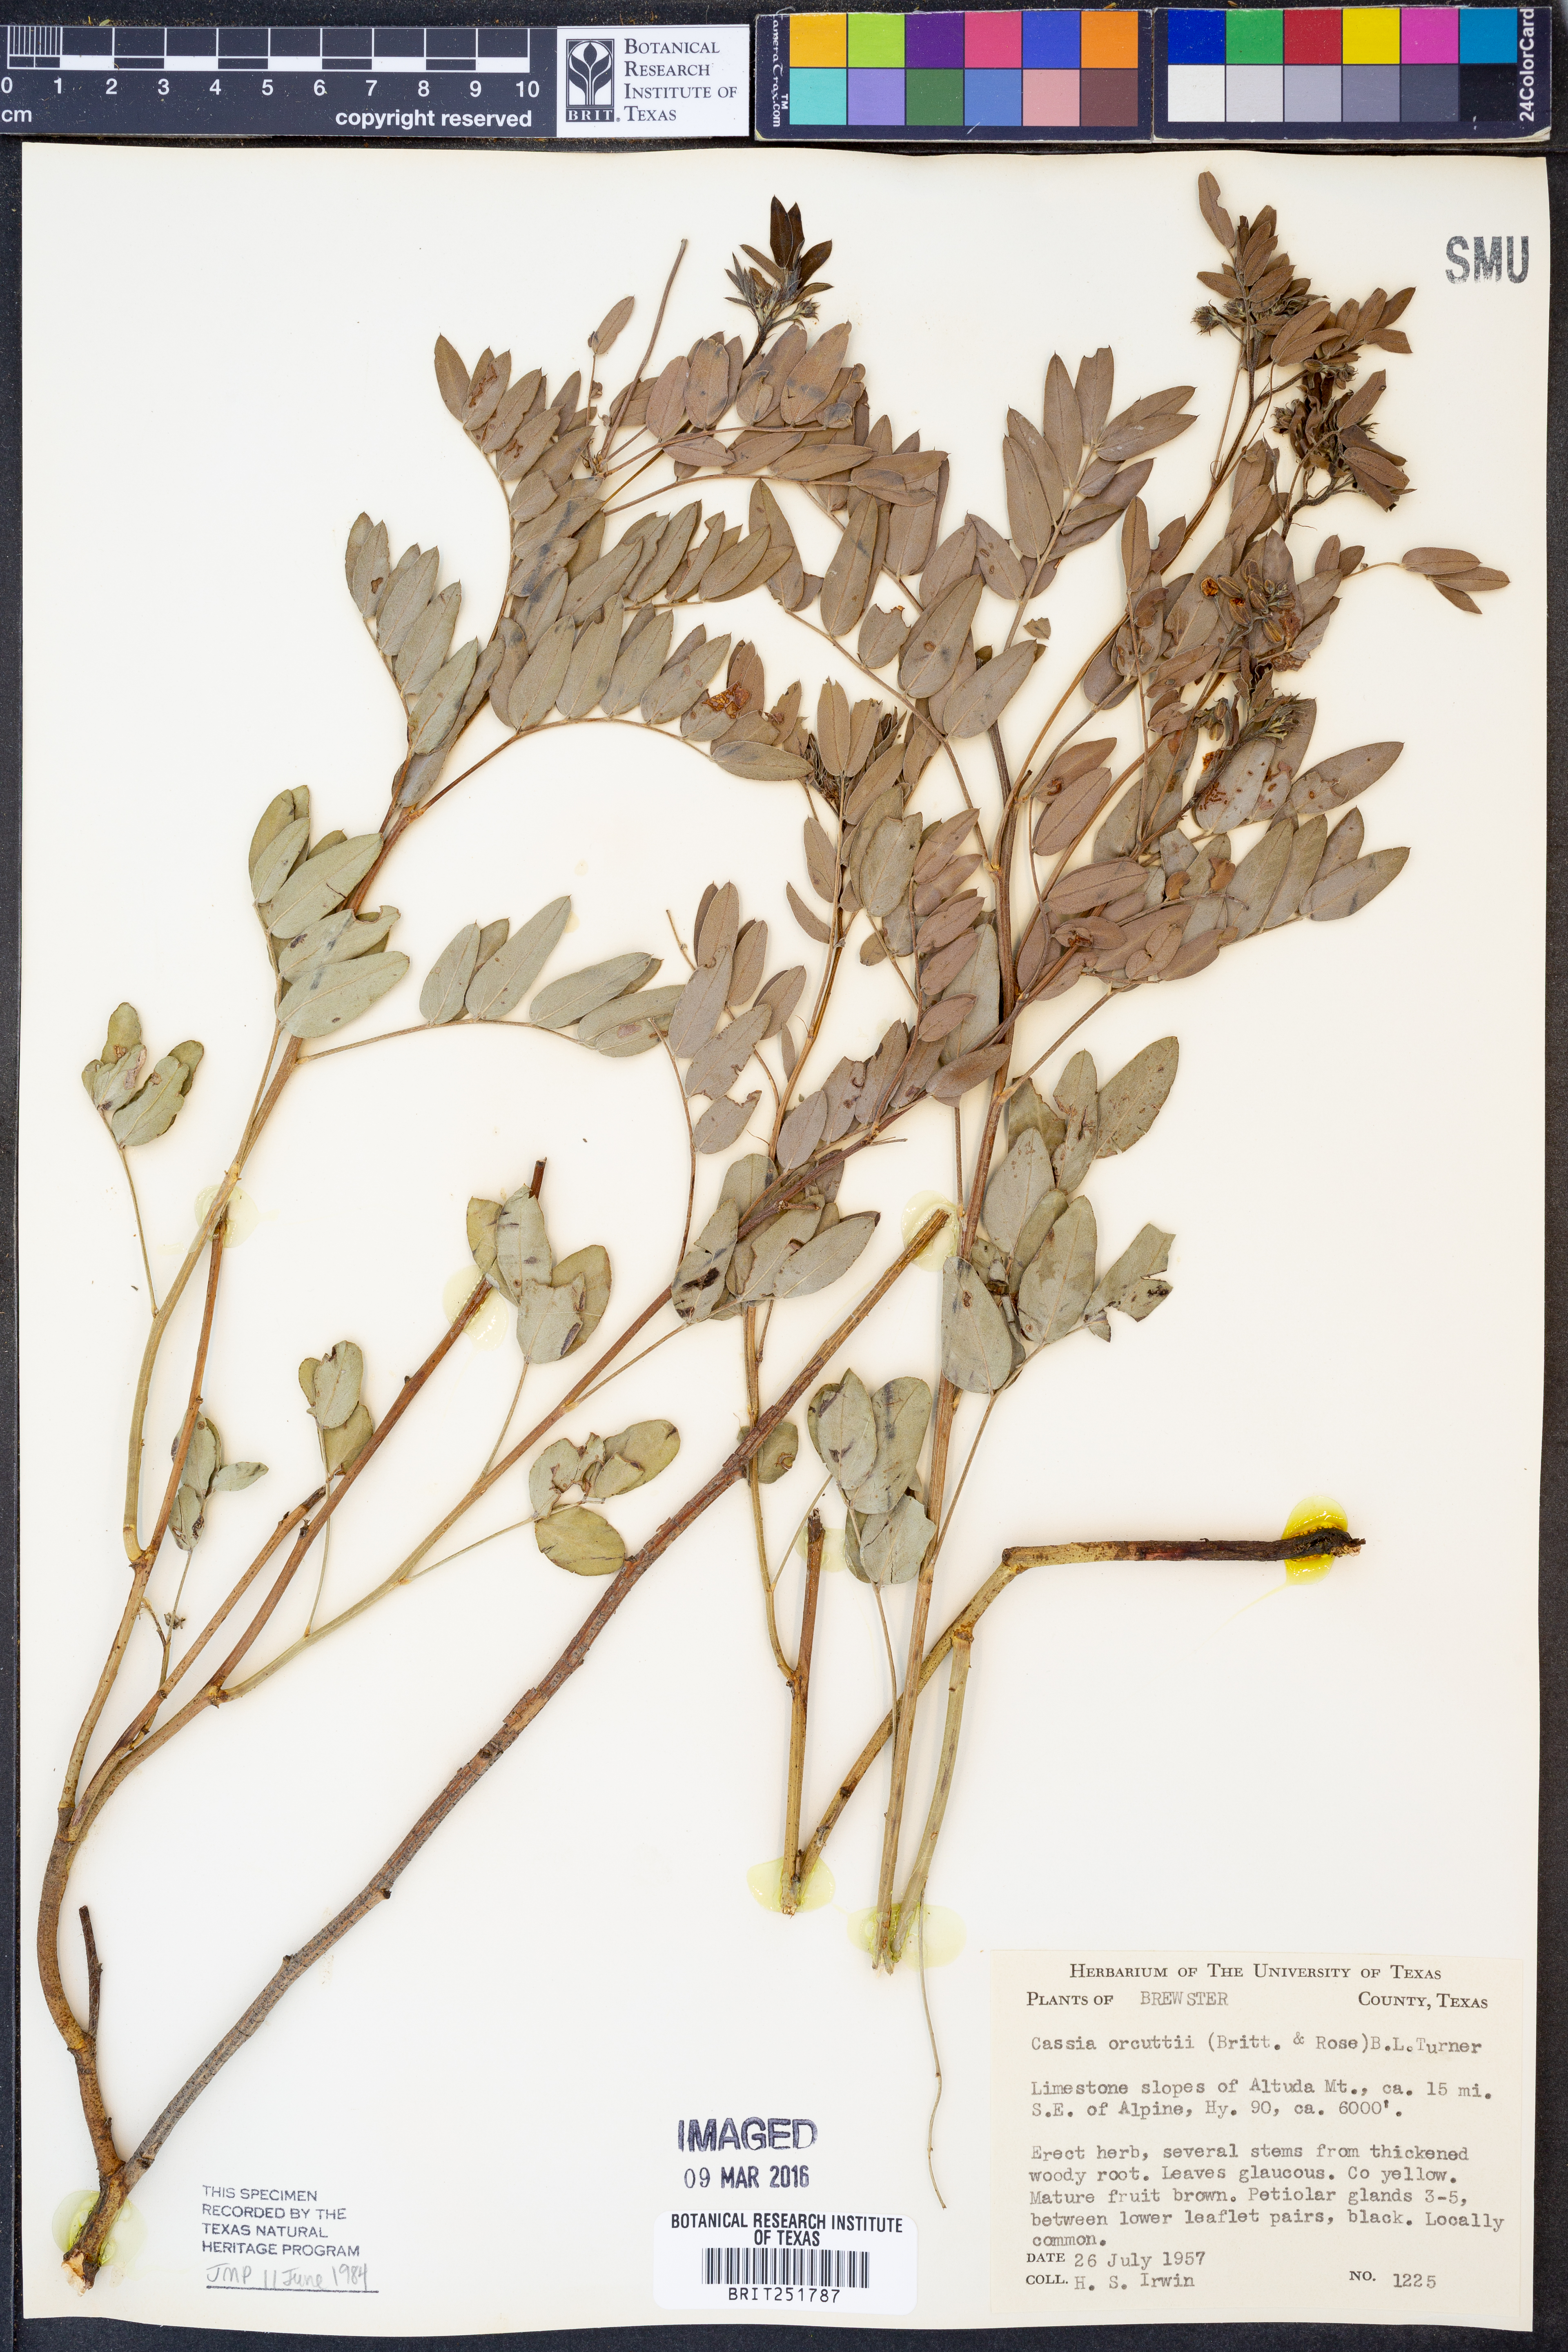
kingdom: Plantae
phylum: Tracheophyta
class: Magnoliopsida
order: Fabales
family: Fabaceae
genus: Senna
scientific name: Senna orcuttii
